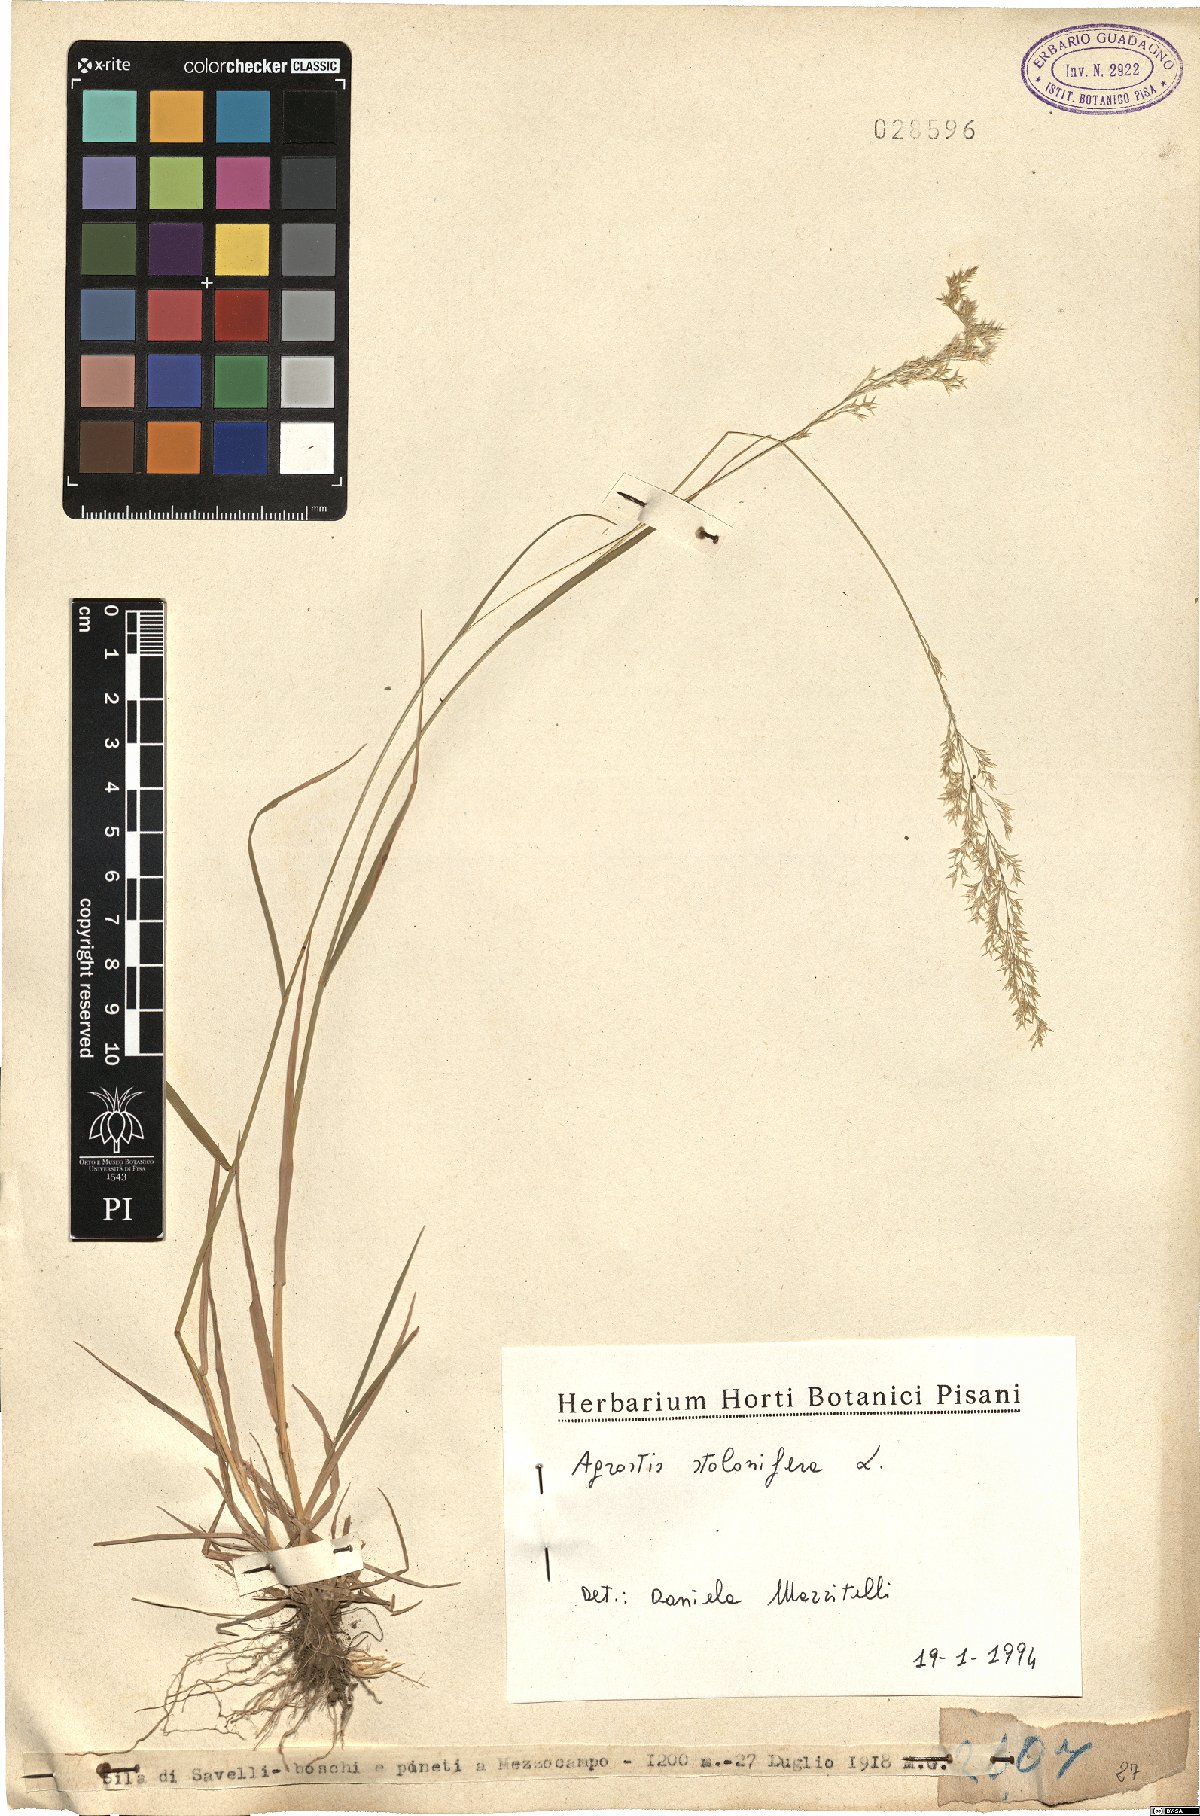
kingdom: Plantae
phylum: Tracheophyta
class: Liliopsida
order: Poales
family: Poaceae
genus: Agrostis
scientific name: Agrostis stolonifera
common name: Creeping bentgrass
